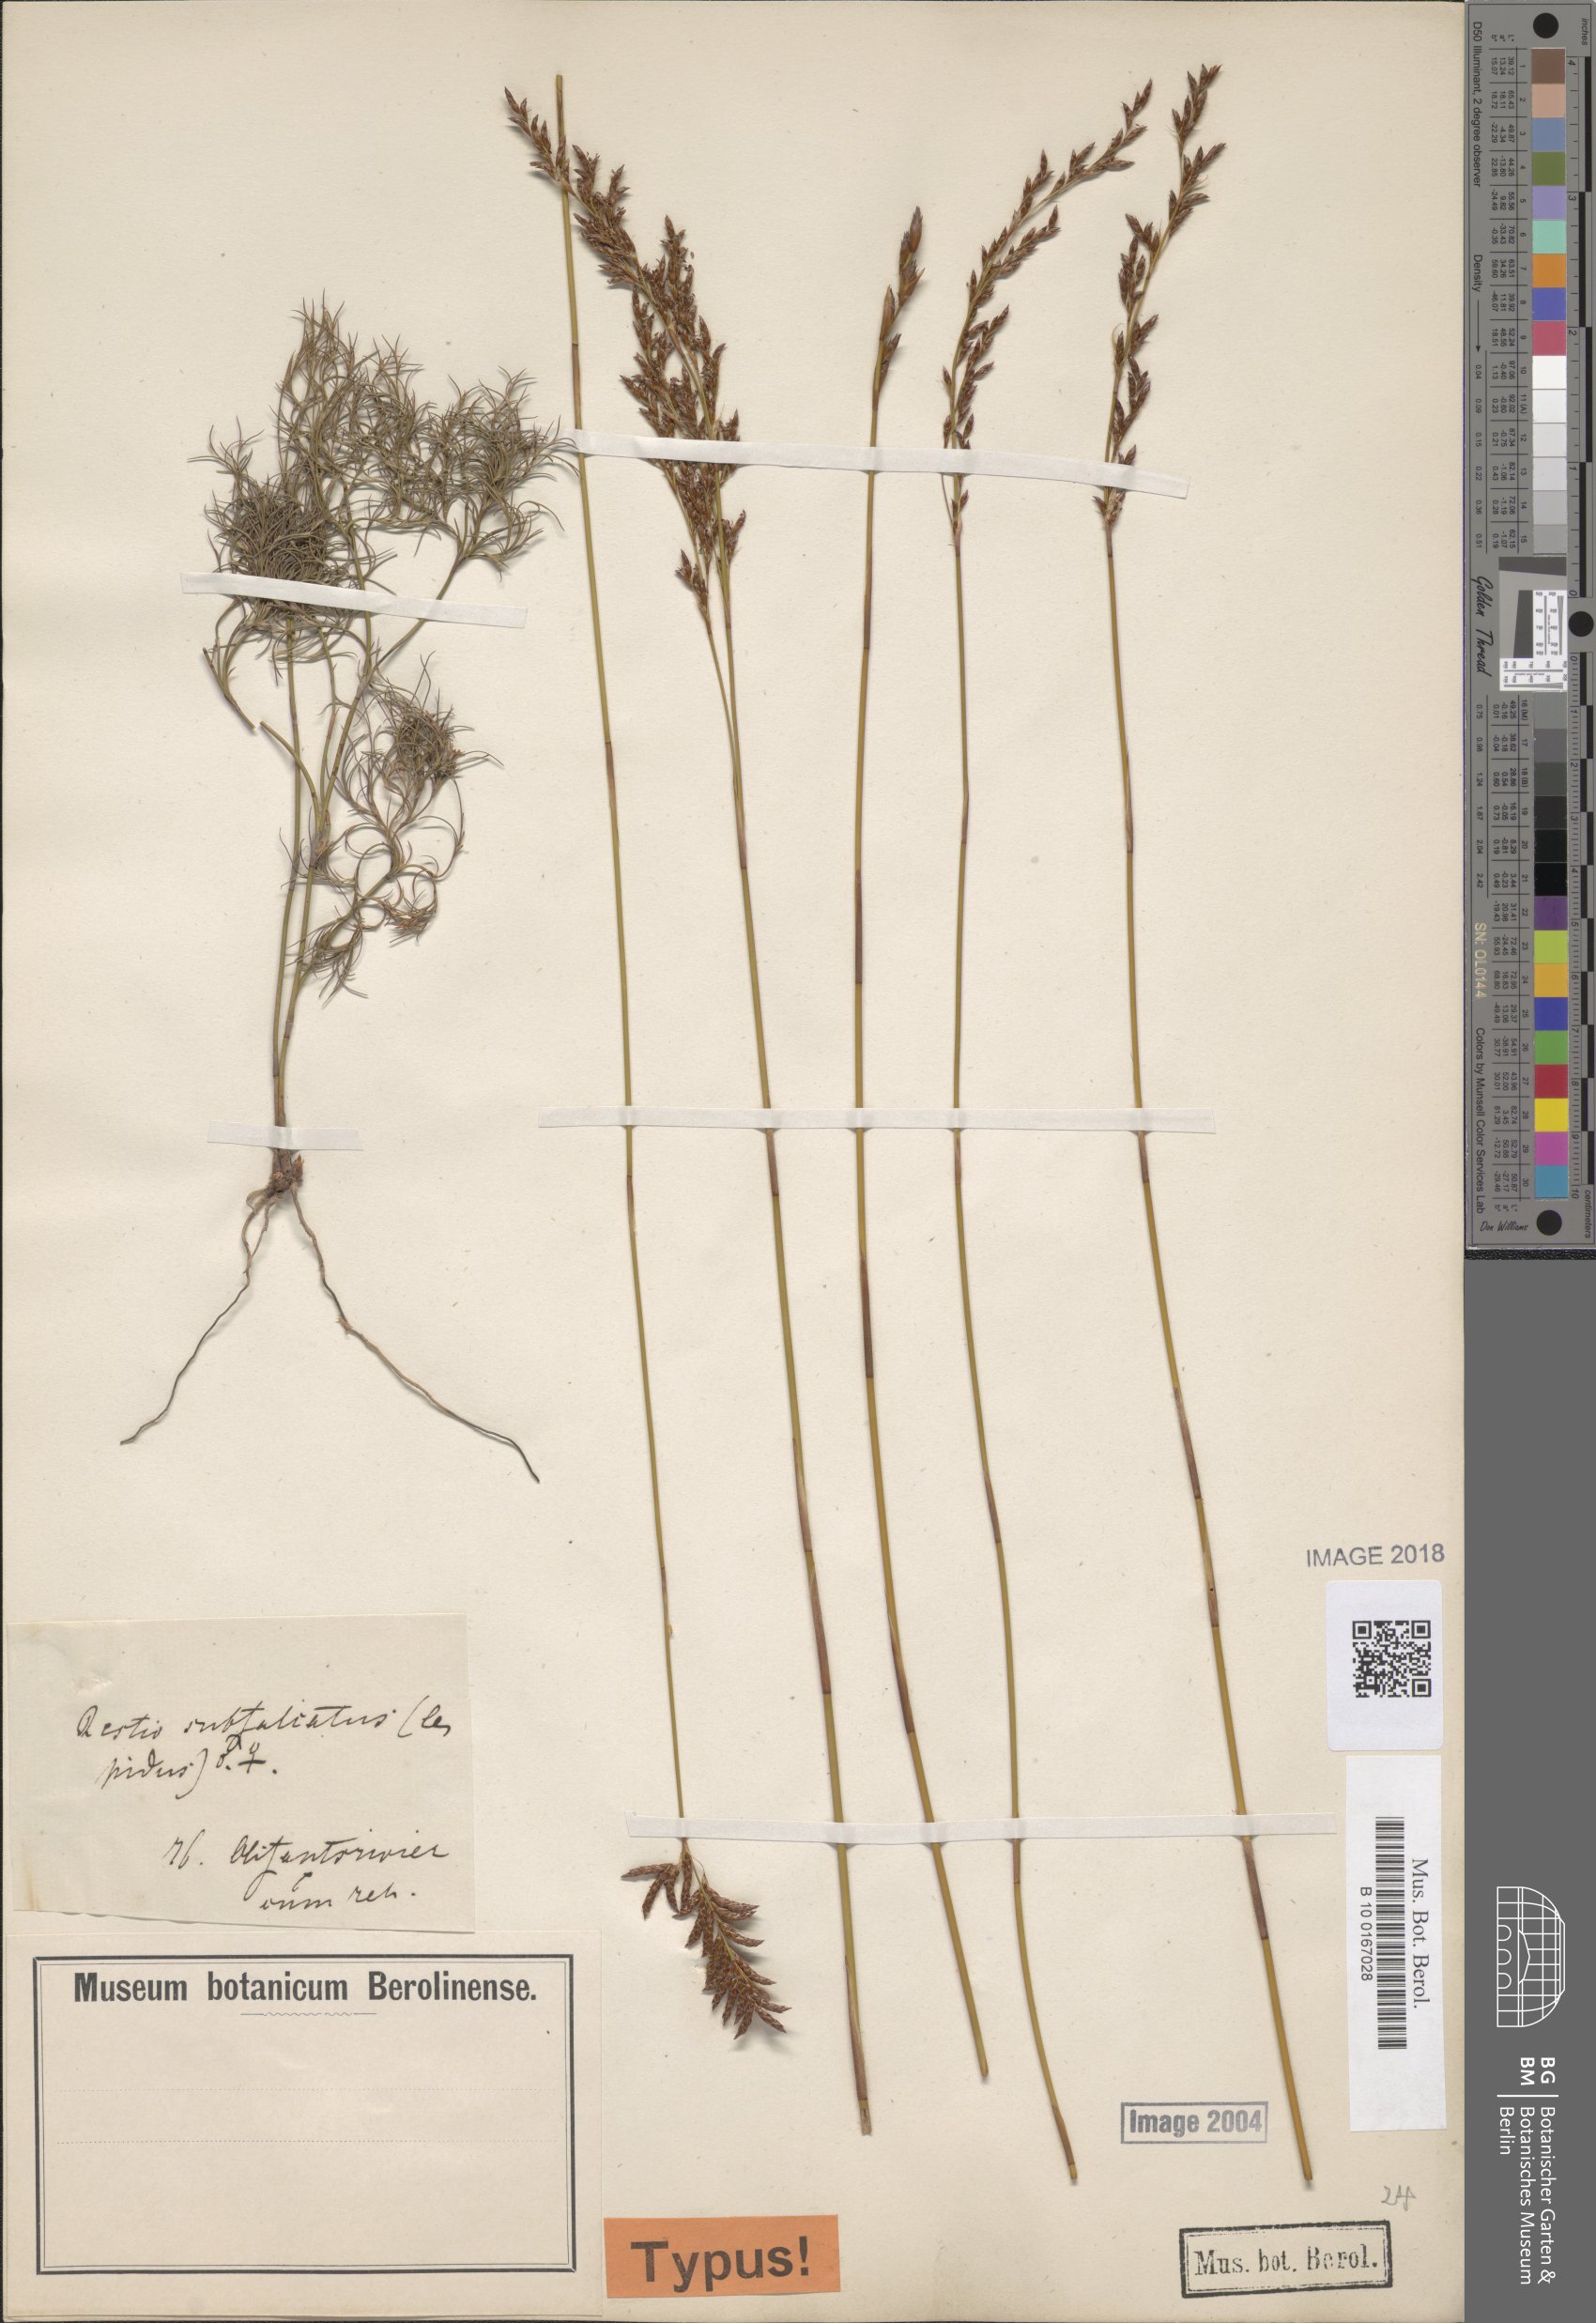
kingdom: Plantae
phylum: Tracheophyta
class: Liliopsida
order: Poales
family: Restionaceae
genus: Restio
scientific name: Restio sieberi
